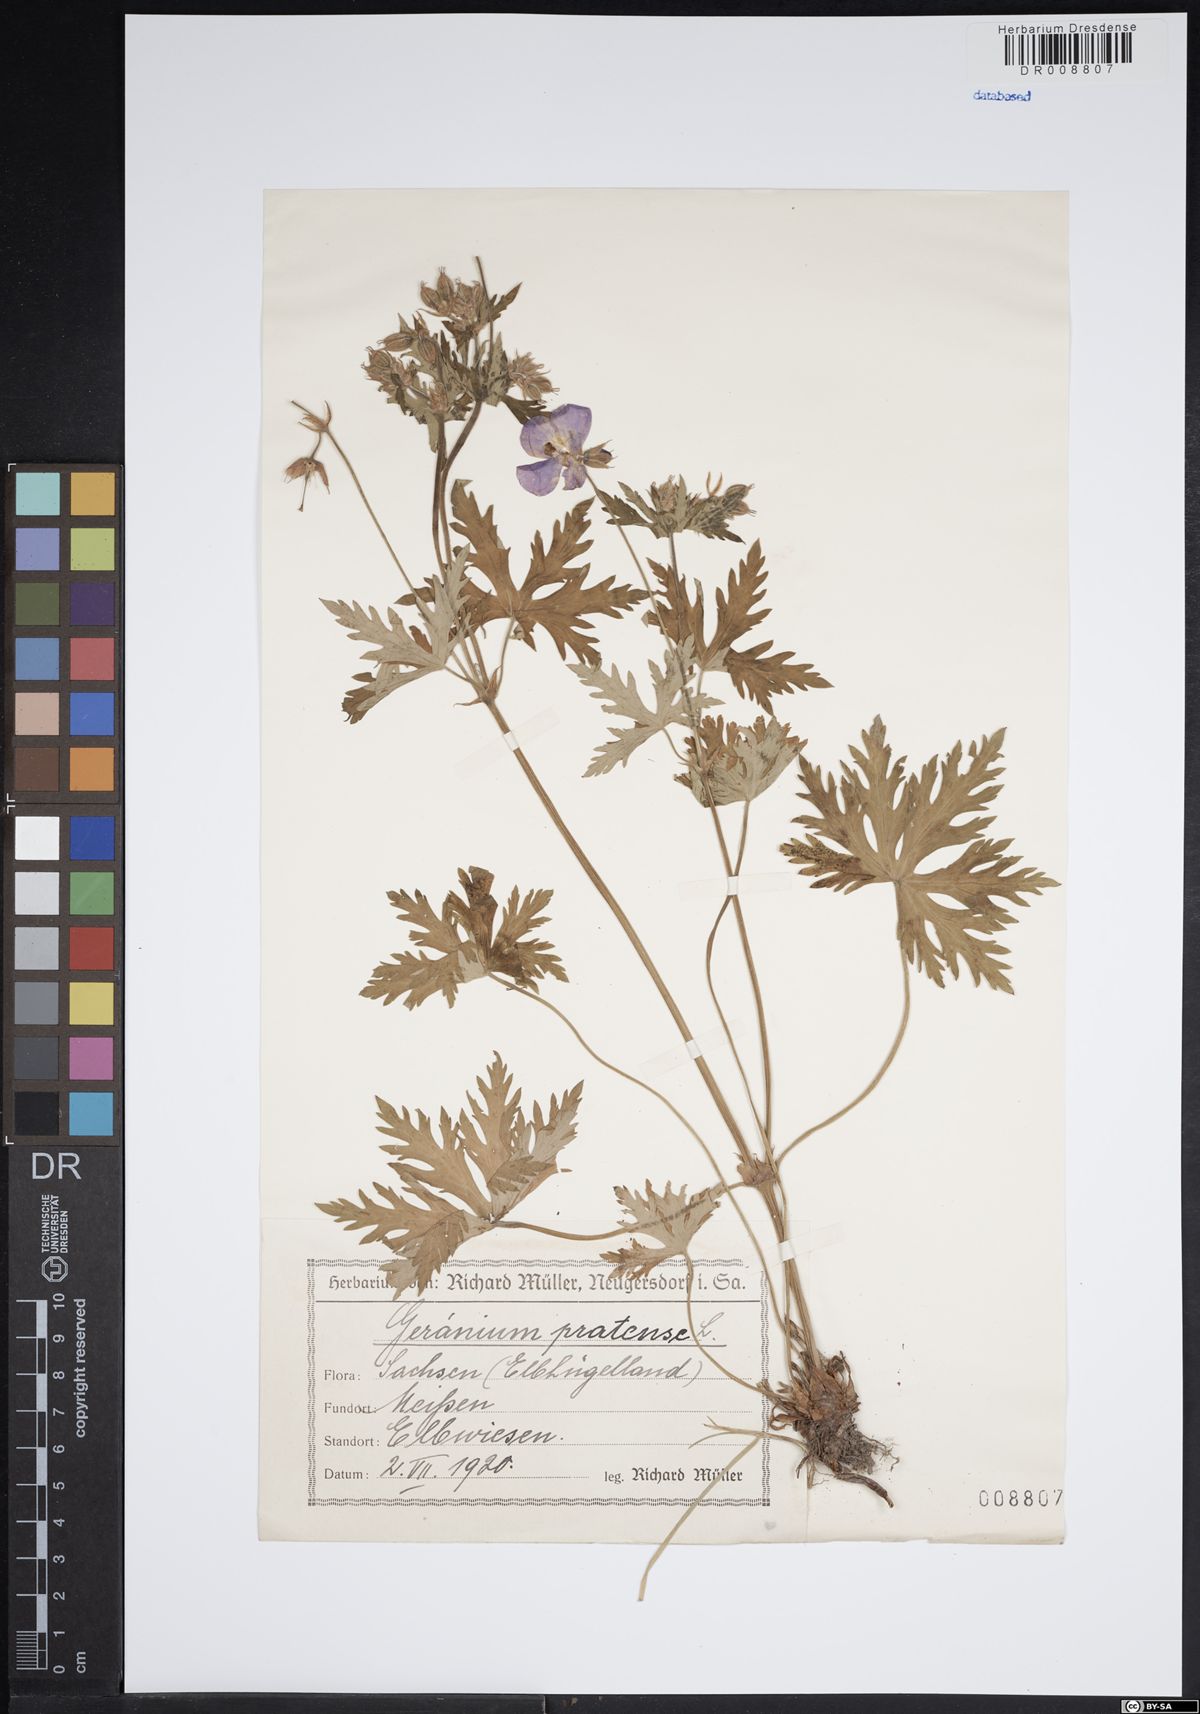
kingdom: Plantae
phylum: Tracheophyta
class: Magnoliopsida
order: Geraniales
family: Geraniaceae
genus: Geranium
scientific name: Geranium pratense
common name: Meadow crane's-bill
